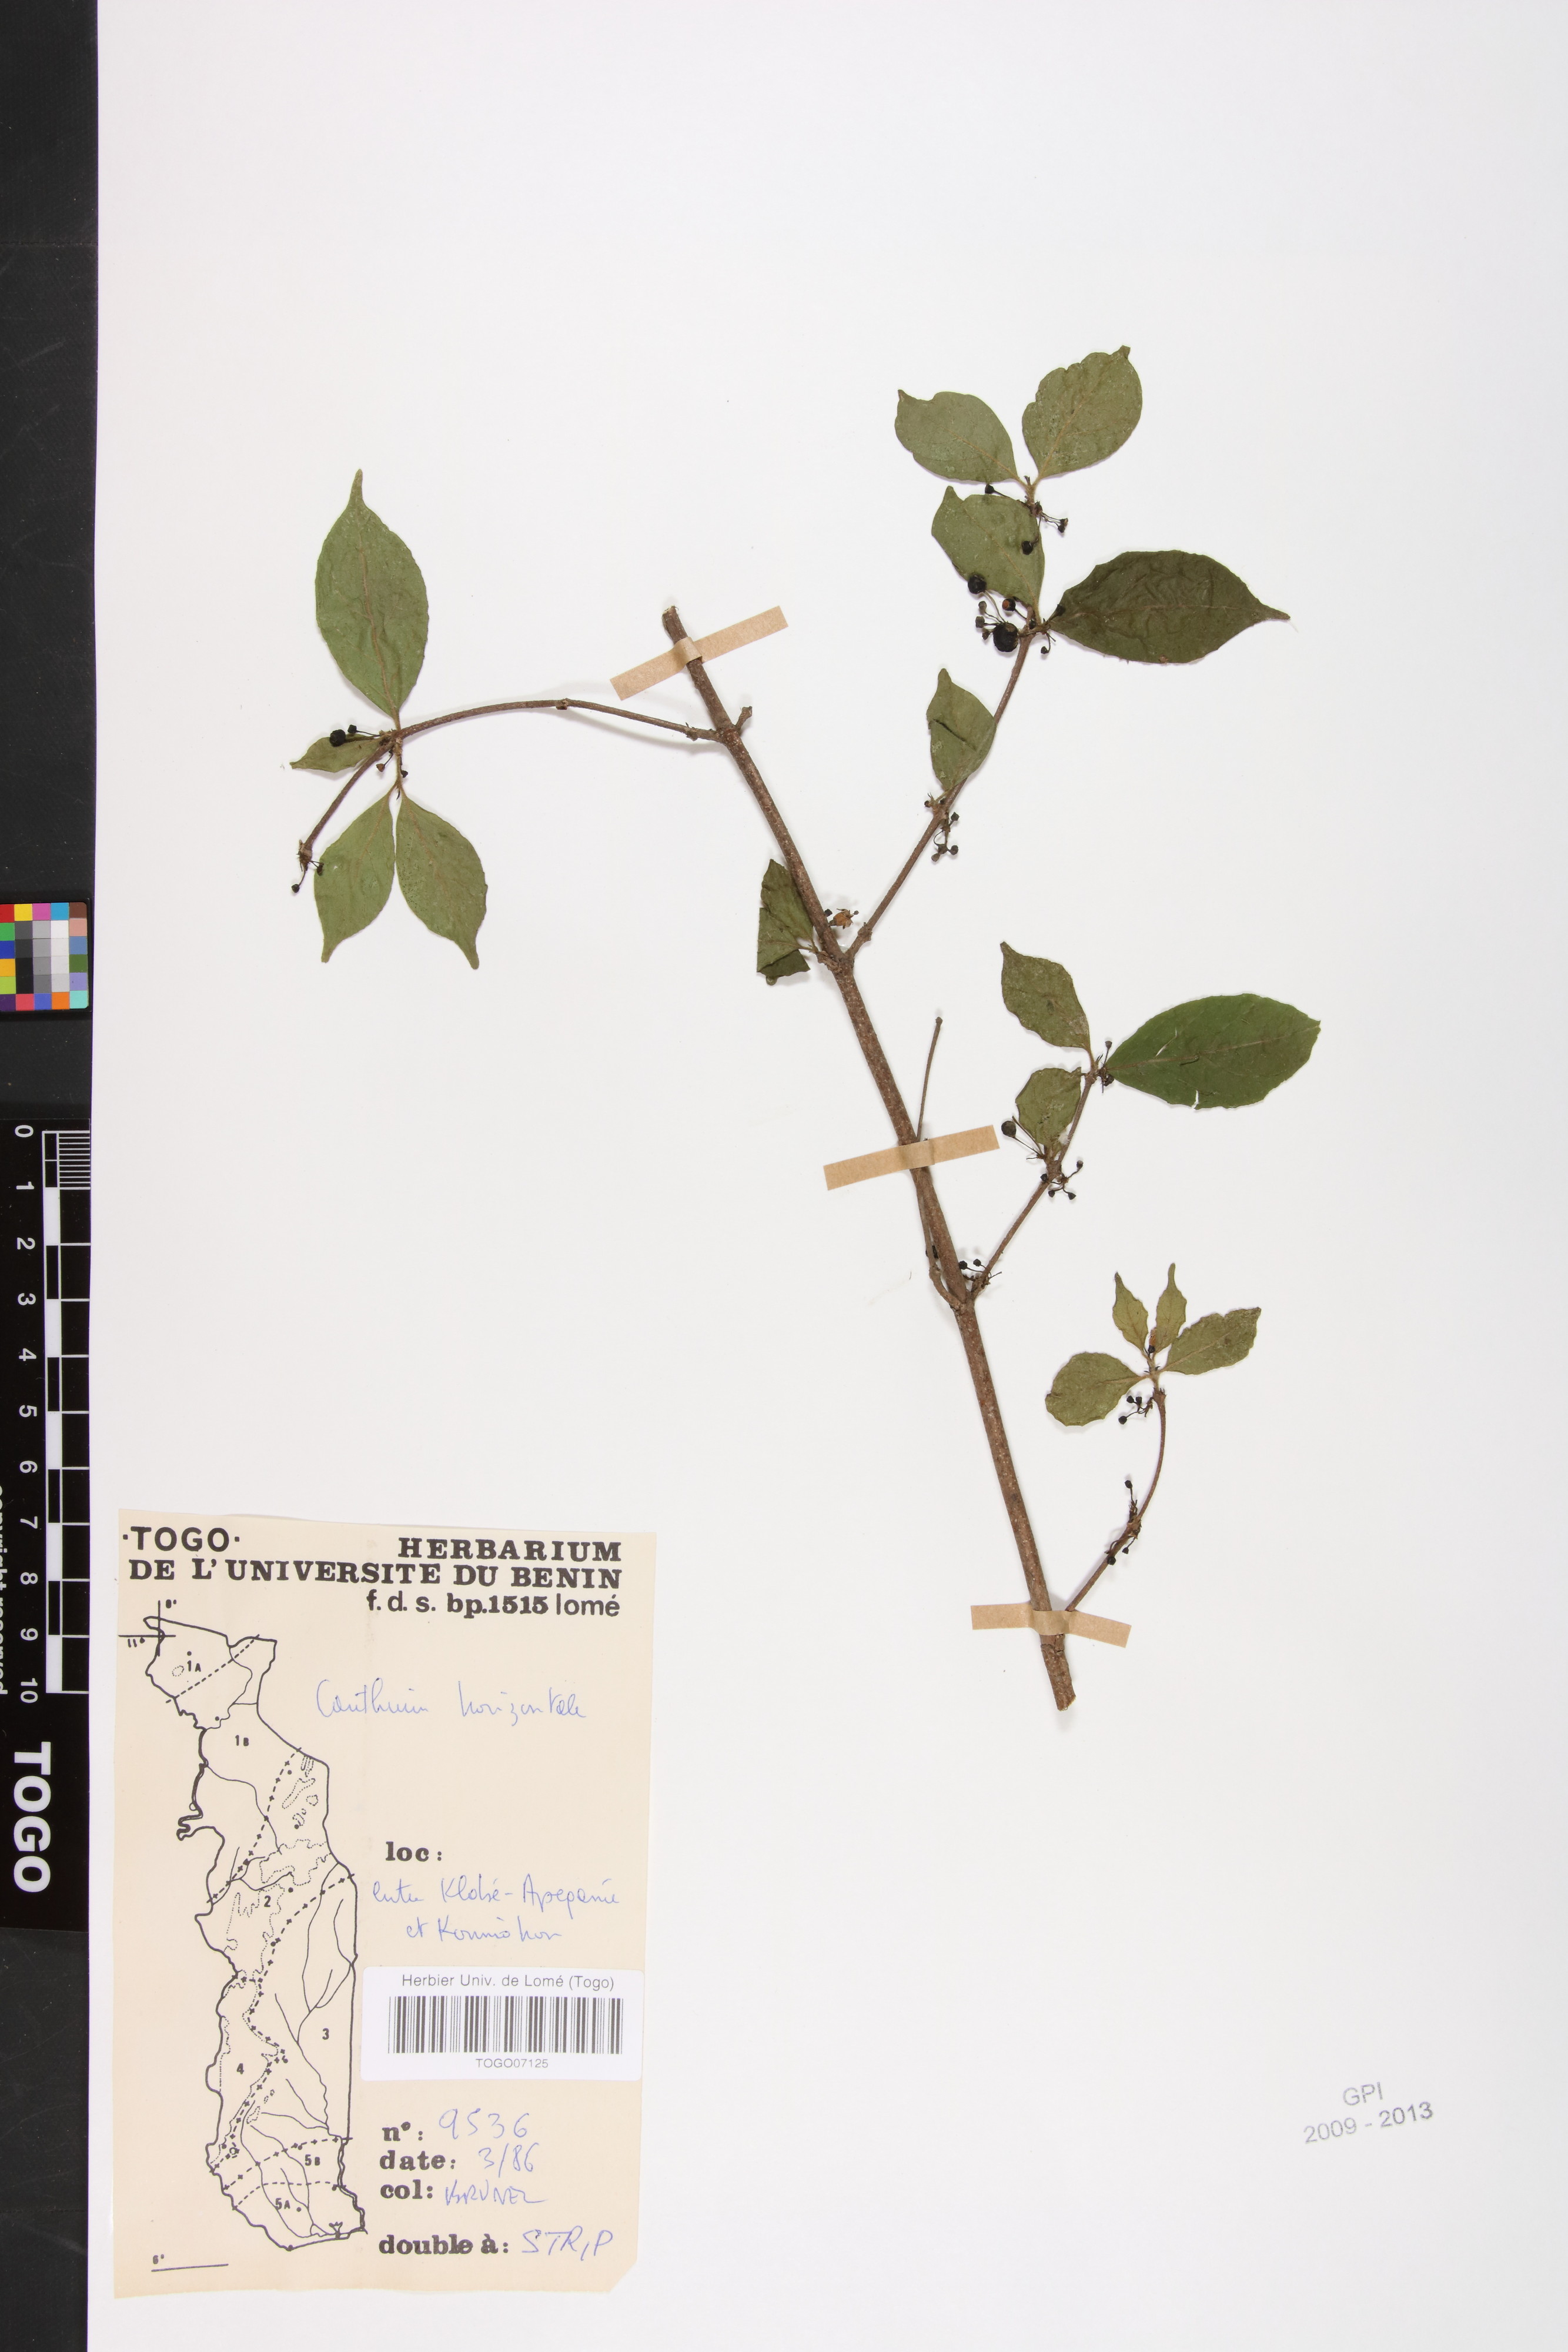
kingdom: Plantae
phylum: Tracheophyta
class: Magnoliopsida
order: Gentianales
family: Rubiaceae
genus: Psydrax
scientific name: Psydrax horizontalis
